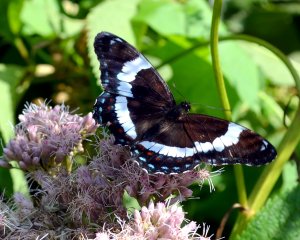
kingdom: Animalia
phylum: Arthropoda
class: Insecta
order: Lepidoptera
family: Nymphalidae
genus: Limenitis
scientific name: Limenitis arthemis
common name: Red-spotted Admiral
